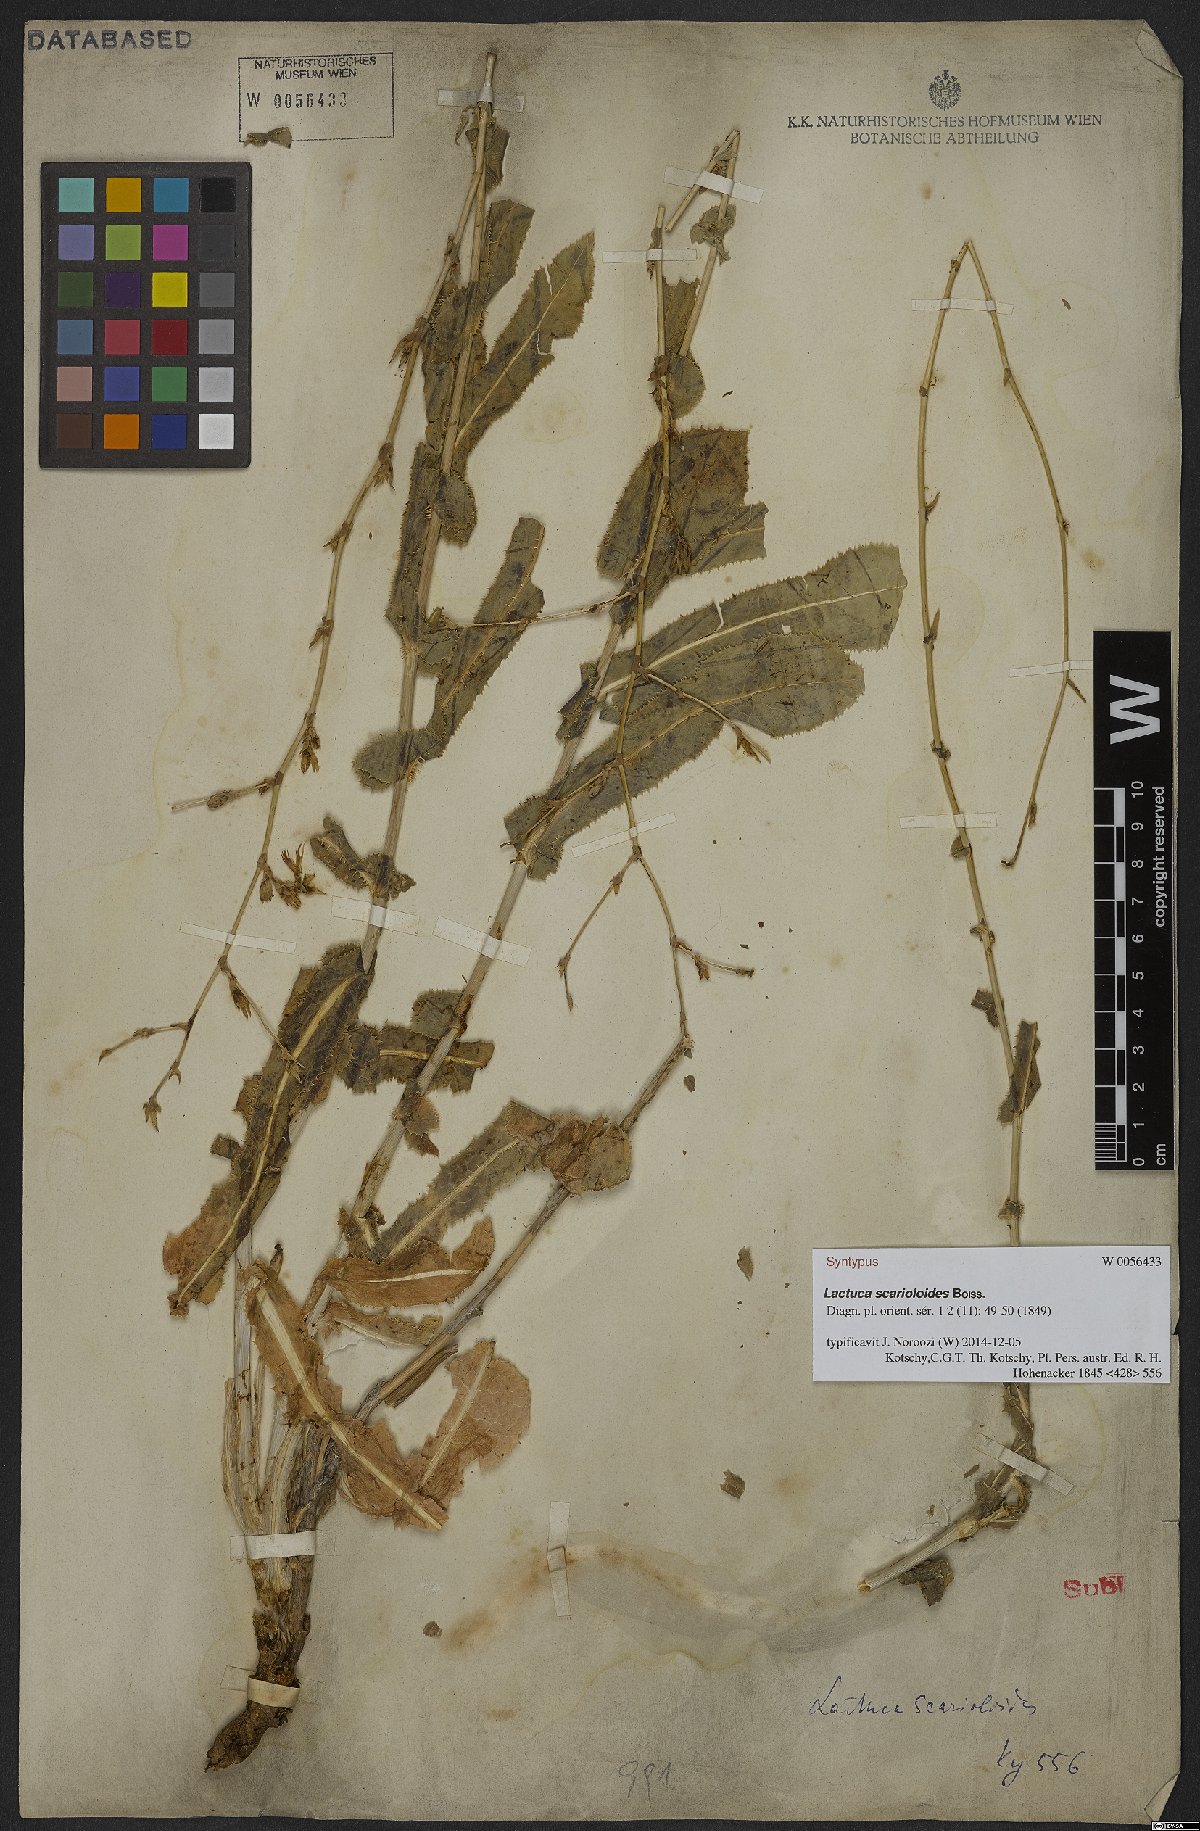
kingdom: Plantae
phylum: Tracheophyta
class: Magnoliopsida
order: Asterales
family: Asteraceae
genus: Lactuca
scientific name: Lactuca scarioloides
